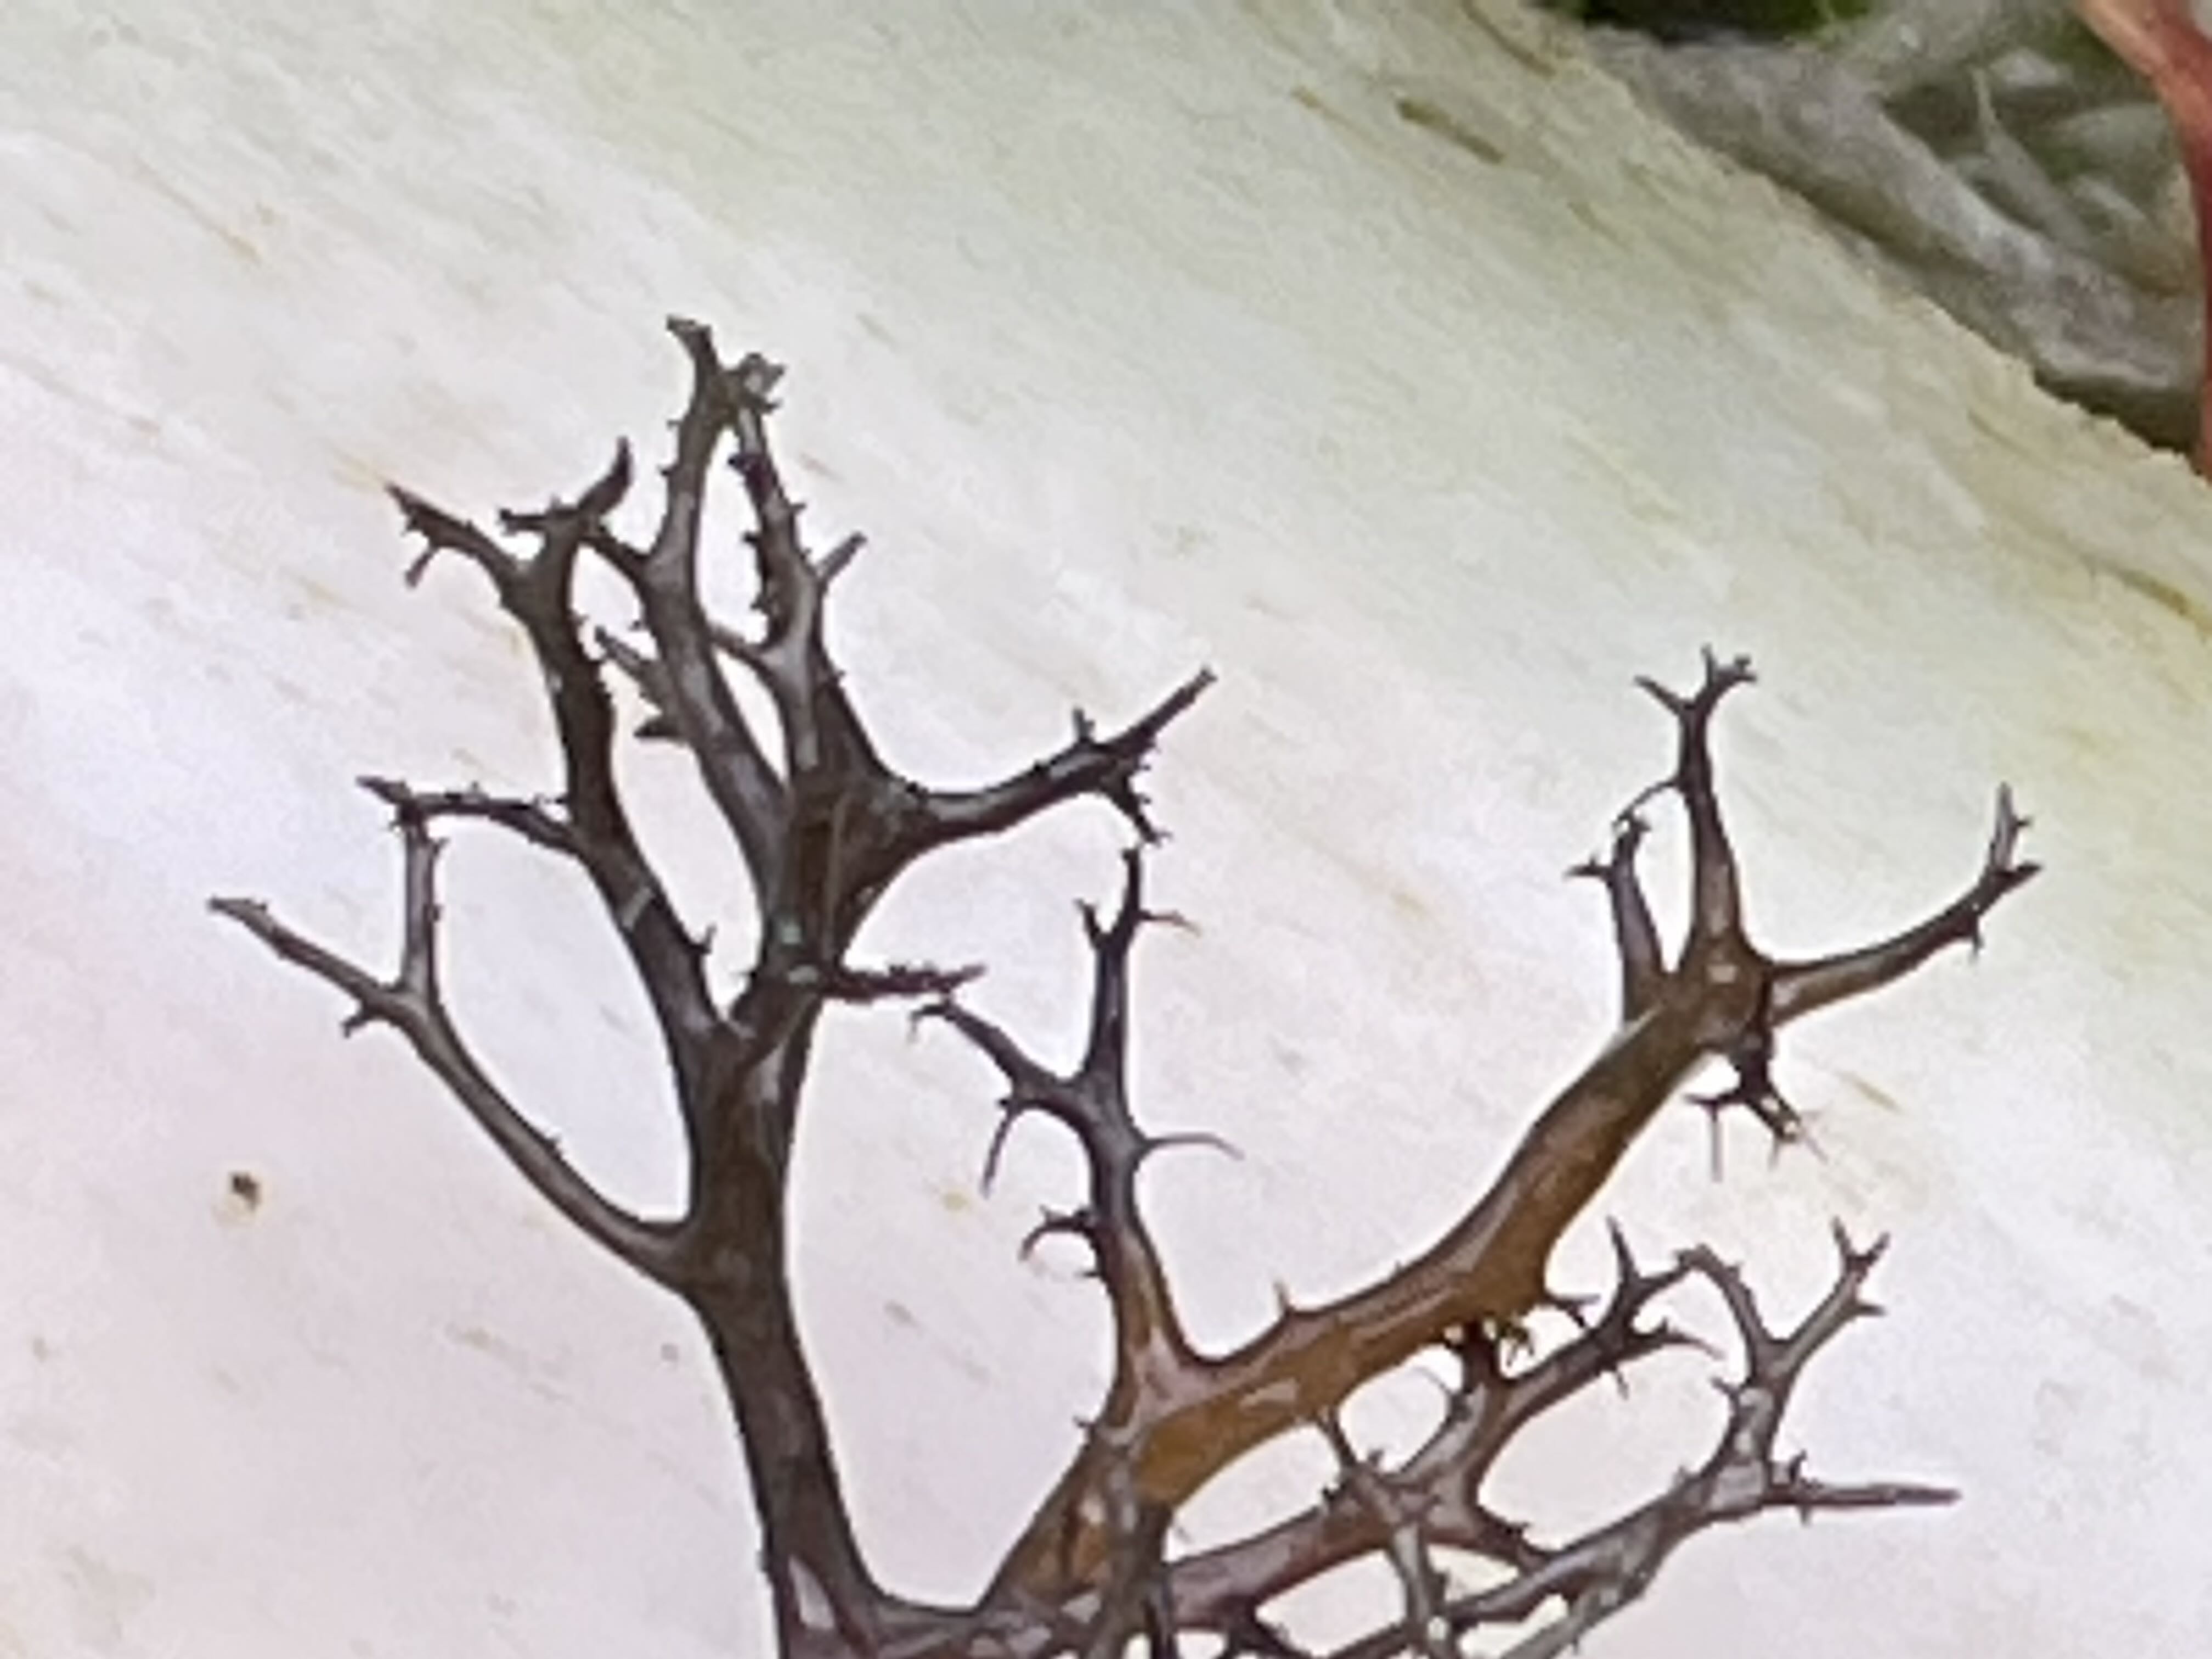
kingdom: Fungi
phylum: Ascomycota
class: Lecanoromycetes
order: Lecanorales
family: Parmeliaceae
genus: Cetraria
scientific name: Cetraria muricata
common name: tue-tjørnelav
